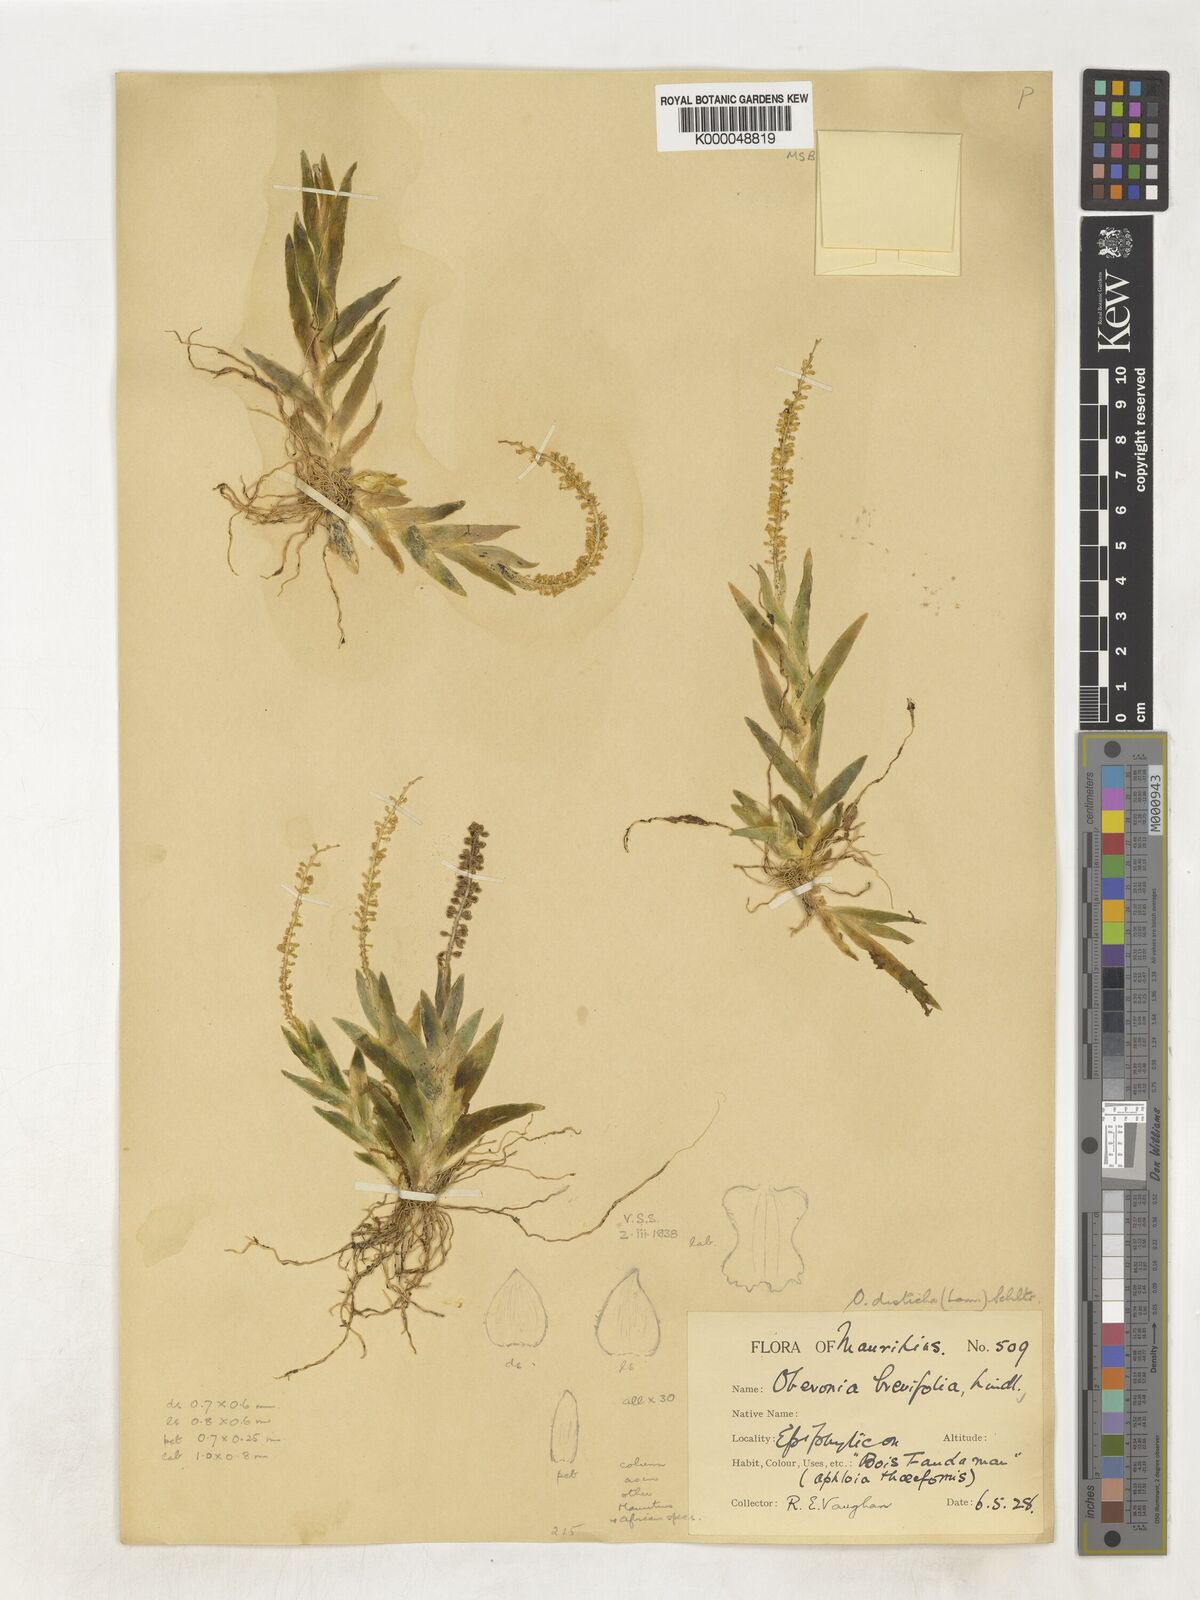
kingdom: Plantae
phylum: Tracheophyta
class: Liliopsida
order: Asparagales
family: Orchidaceae
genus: Oberonia
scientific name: Oberonia disticha
